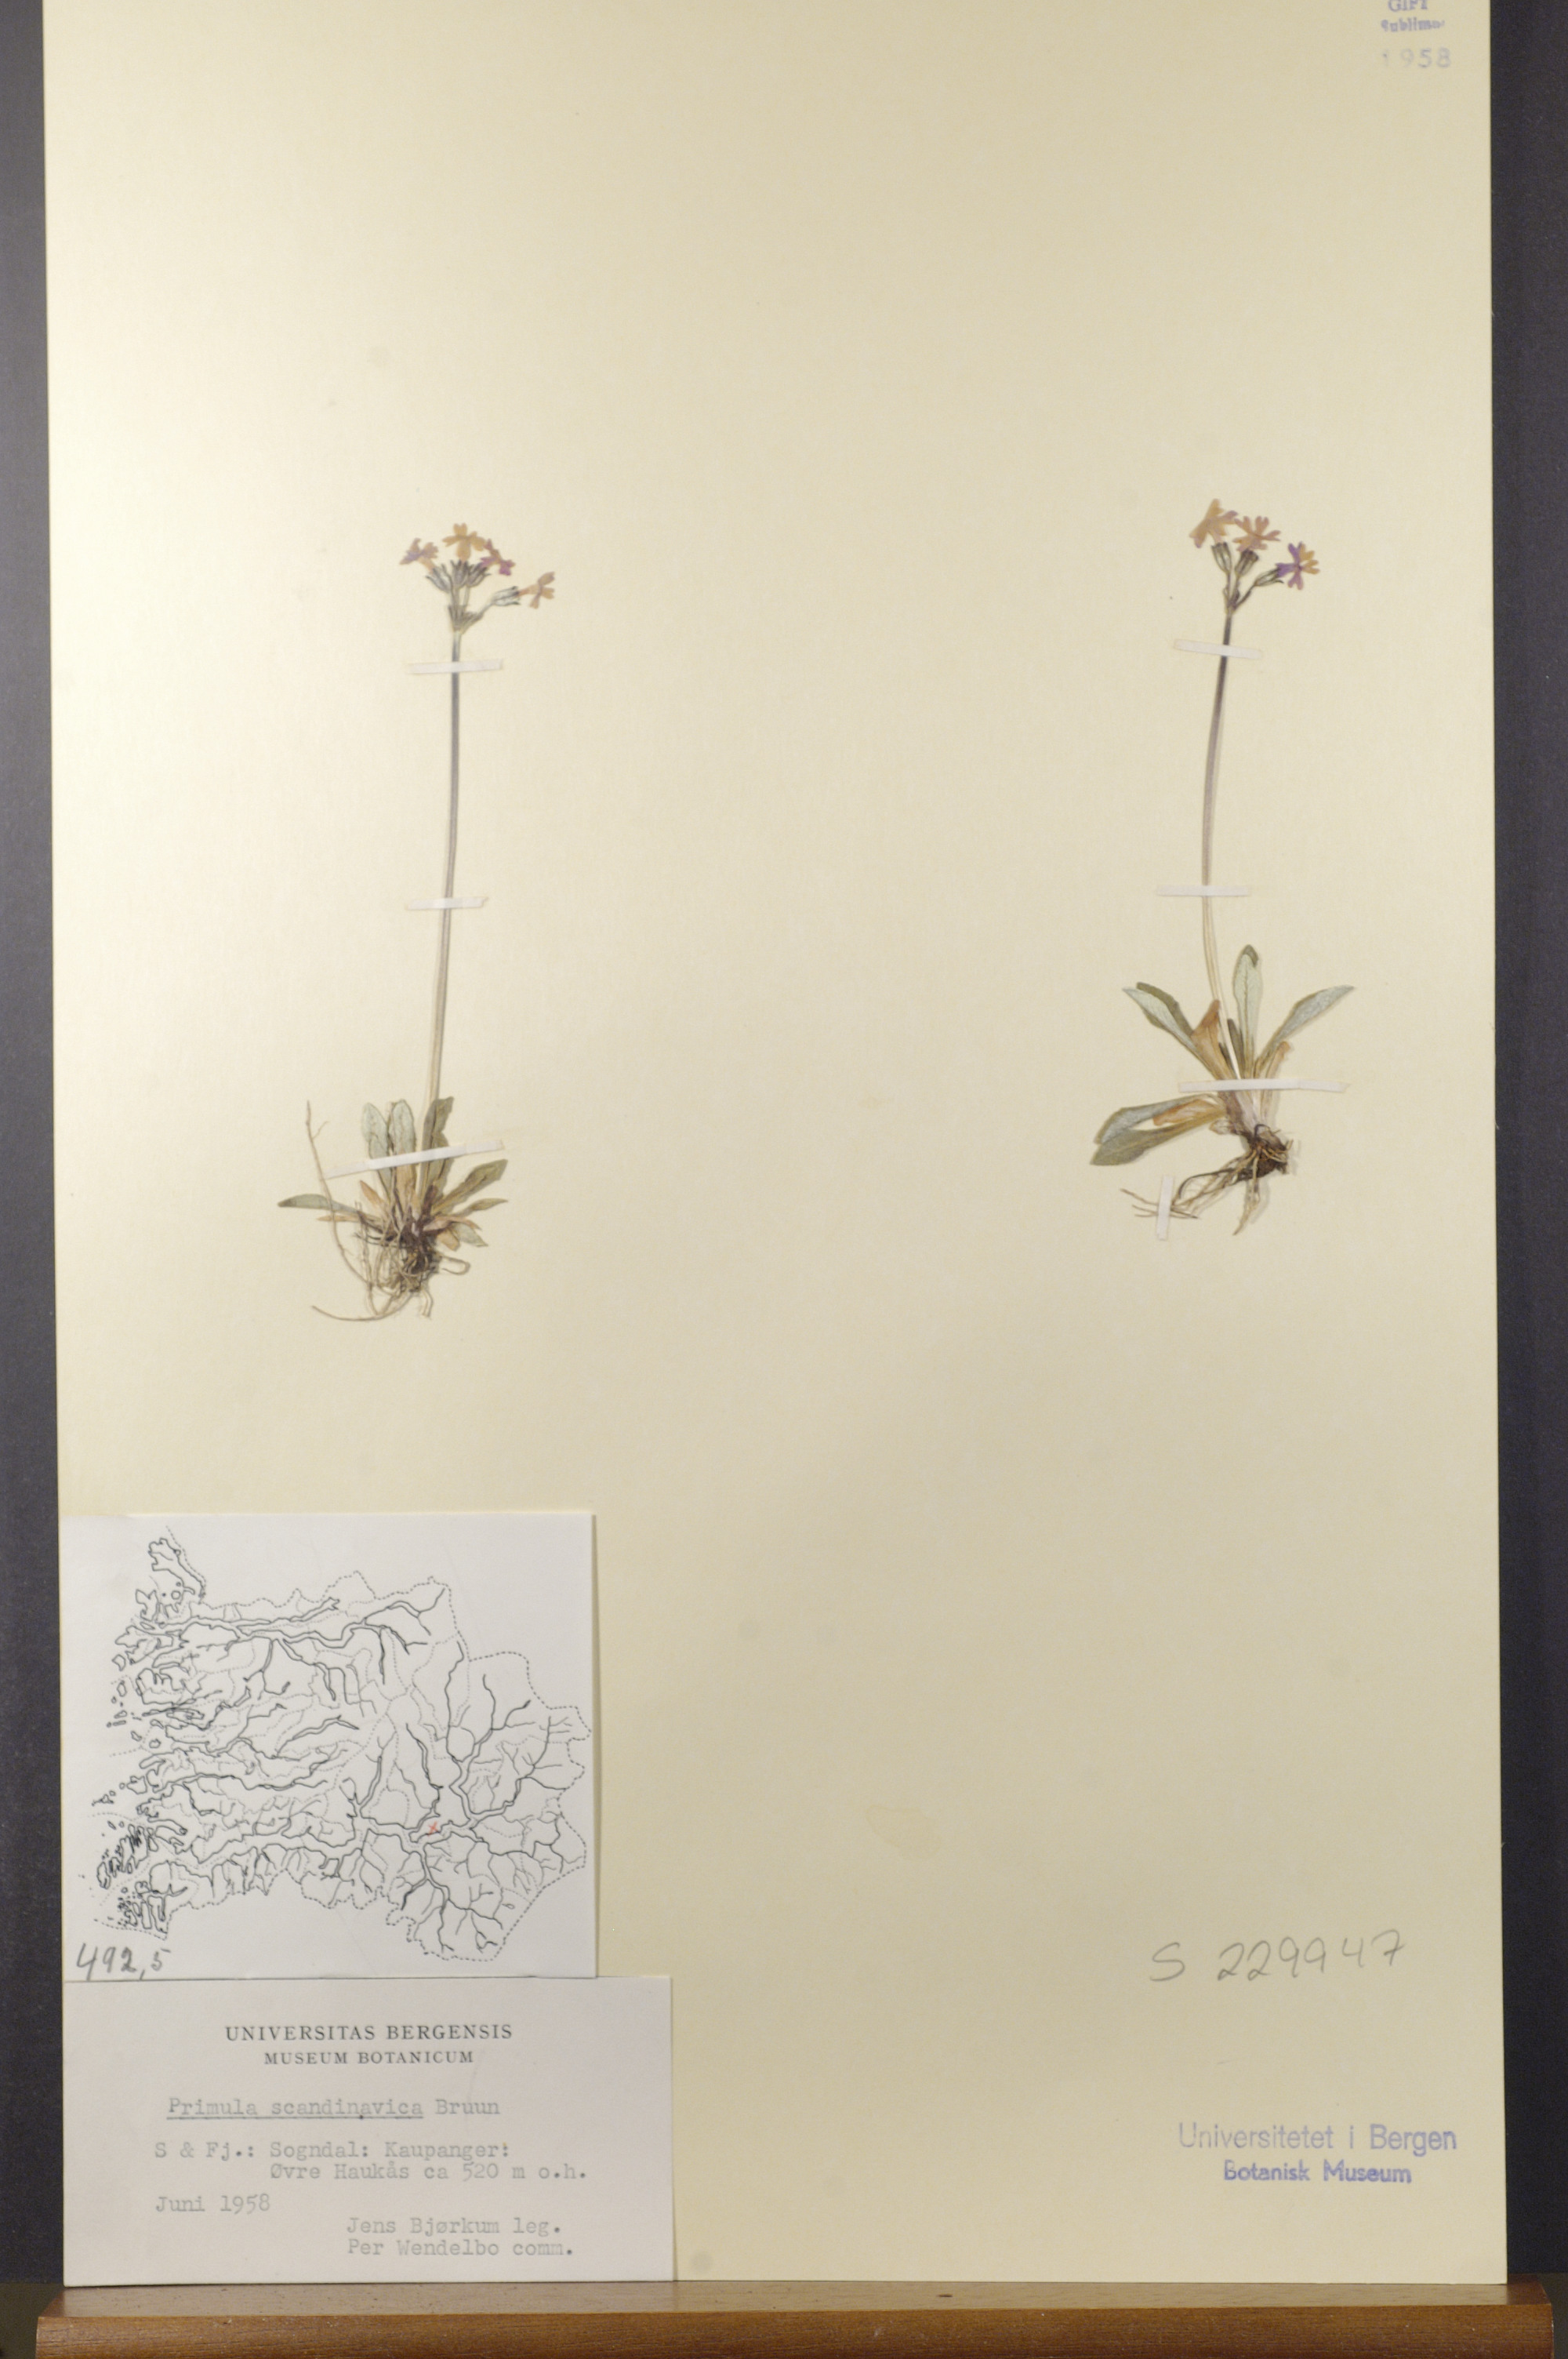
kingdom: Plantae
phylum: Tracheophyta
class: Magnoliopsida
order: Ericales
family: Primulaceae
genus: Primula
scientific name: Primula scandinavica
